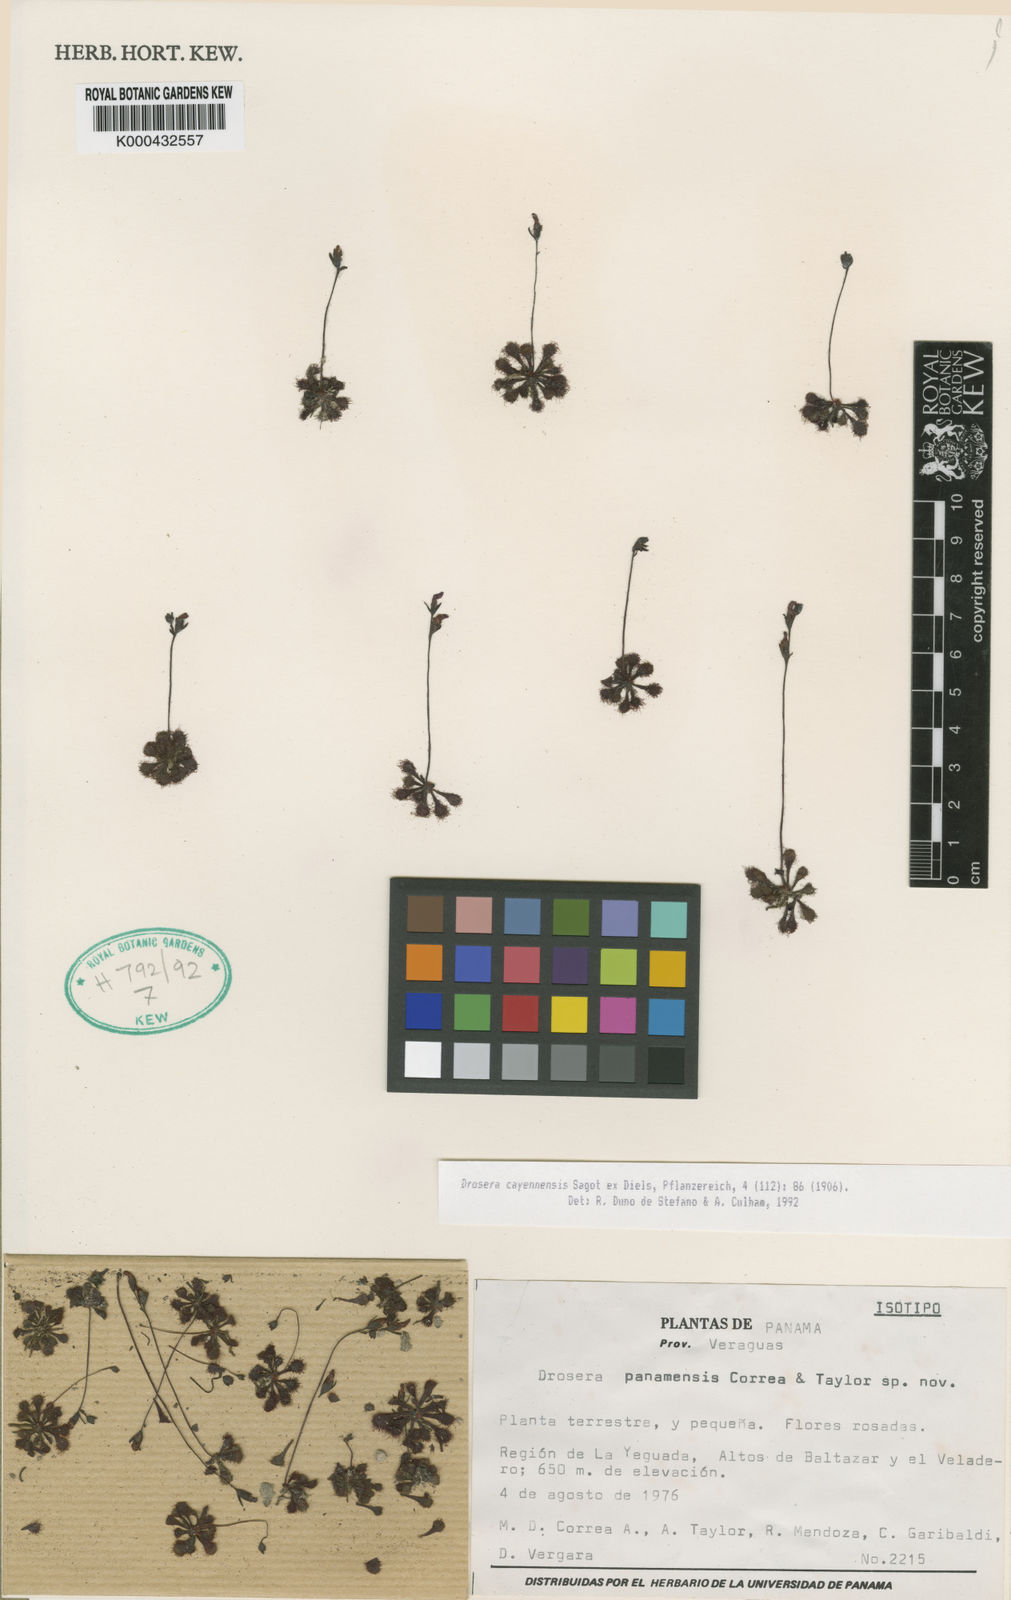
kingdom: Plantae
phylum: Tracheophyta
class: Magnoliopsida
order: Caryophyllales
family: Droseraceae
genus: Drosera
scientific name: Drosera
